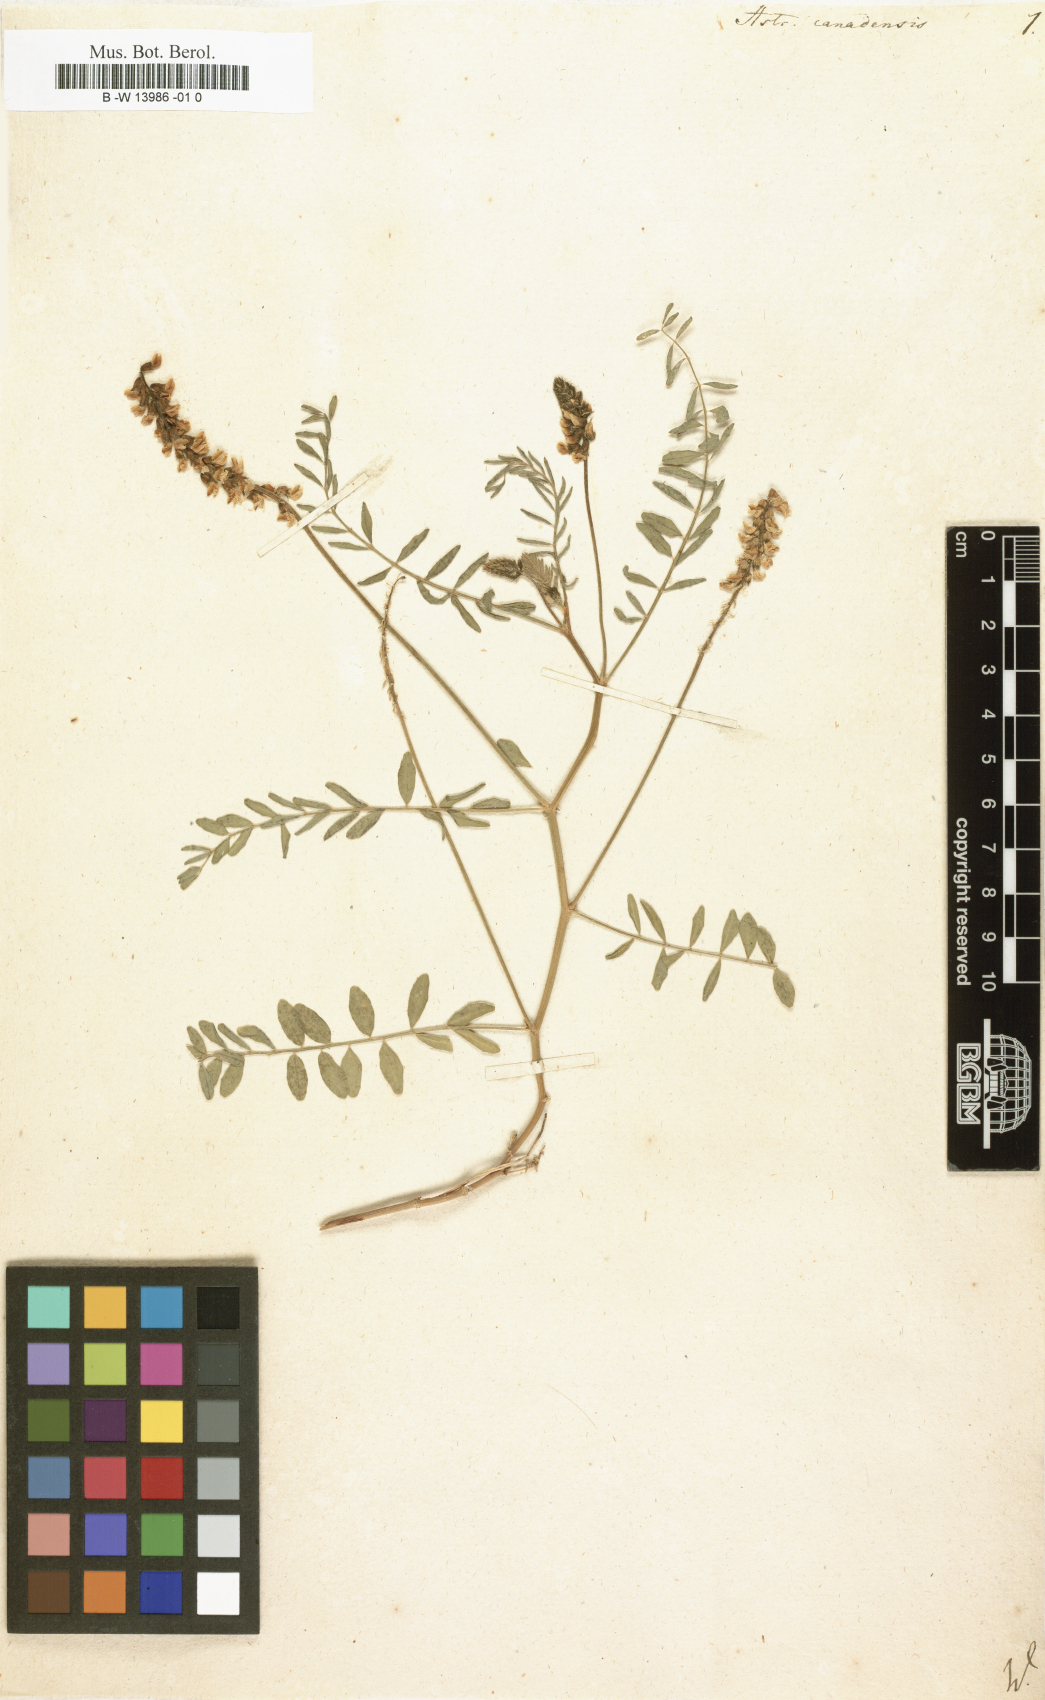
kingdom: Plantae
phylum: Tracheophyta
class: Magnoliopsida
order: Fabales
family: Fabaceae
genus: Astragalus
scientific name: Astragalus canadensis
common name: Canada milk-vetch
